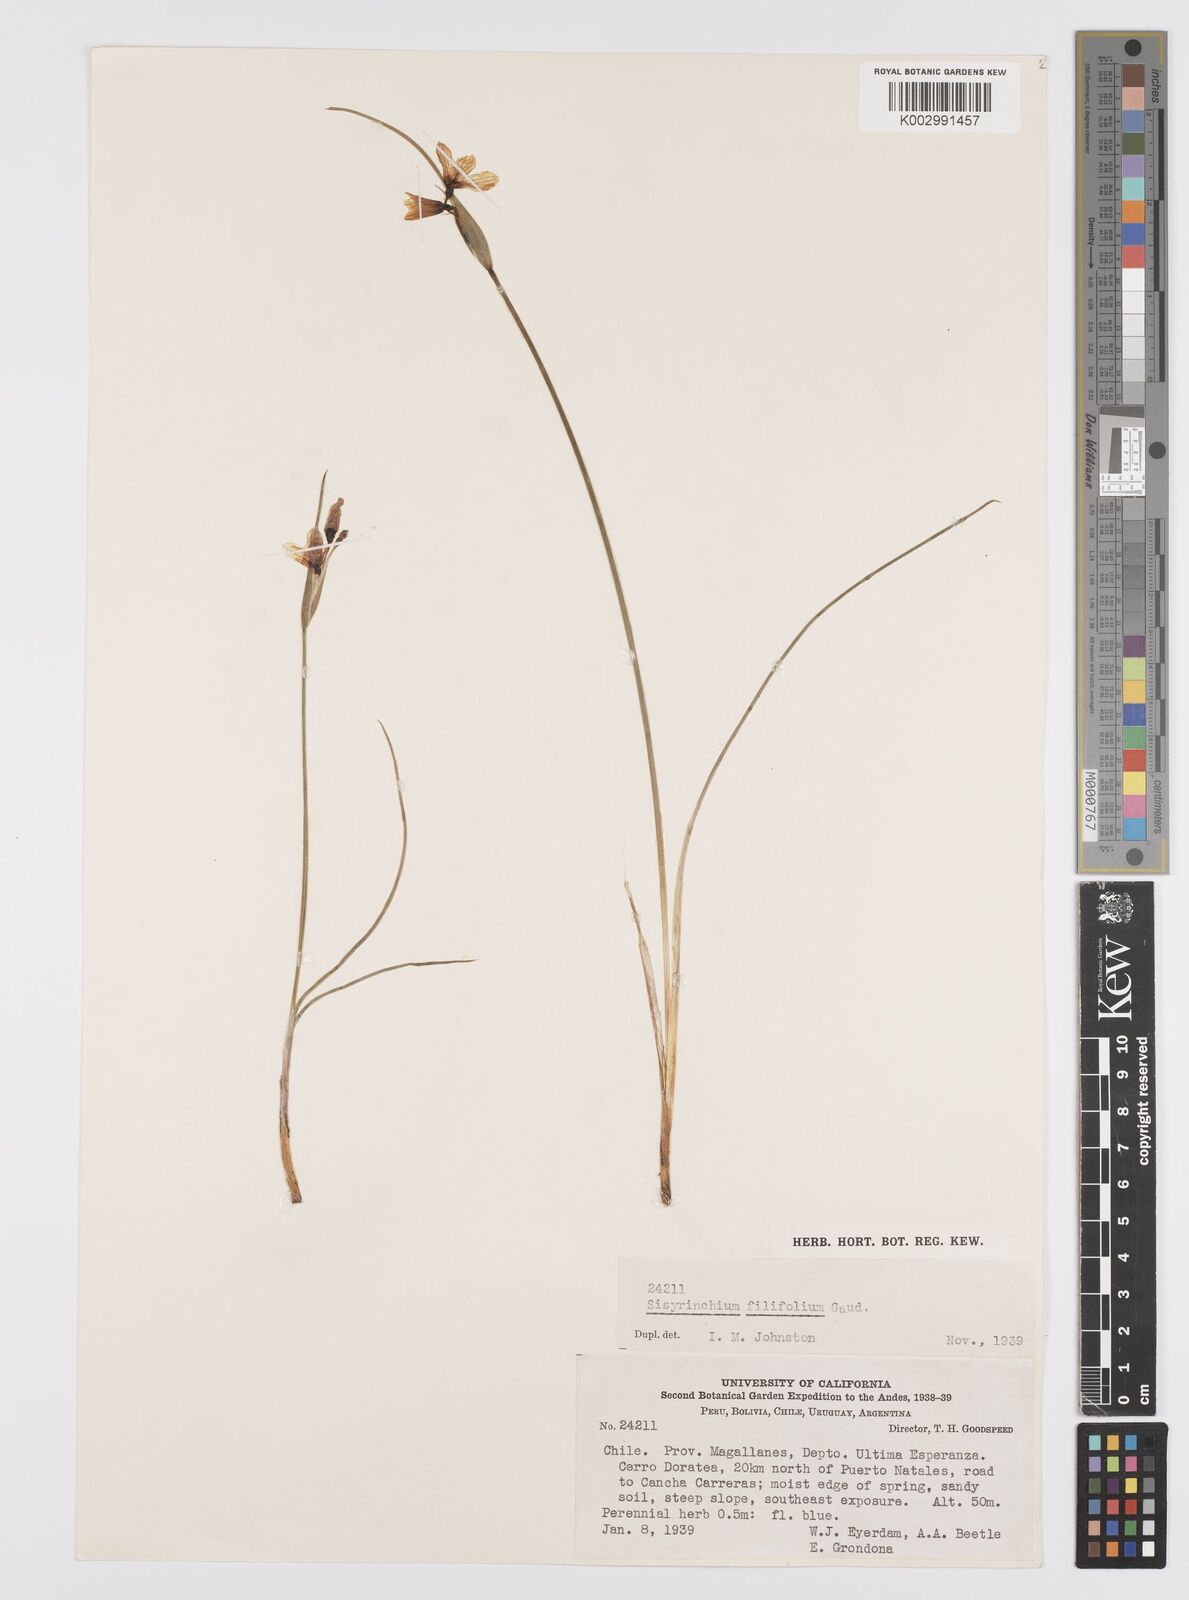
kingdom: Plantae
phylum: Tracheophyta
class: Liliopsida
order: Asparagales
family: Iridaceae
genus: Olsynium
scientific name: Olsynium filifolium
